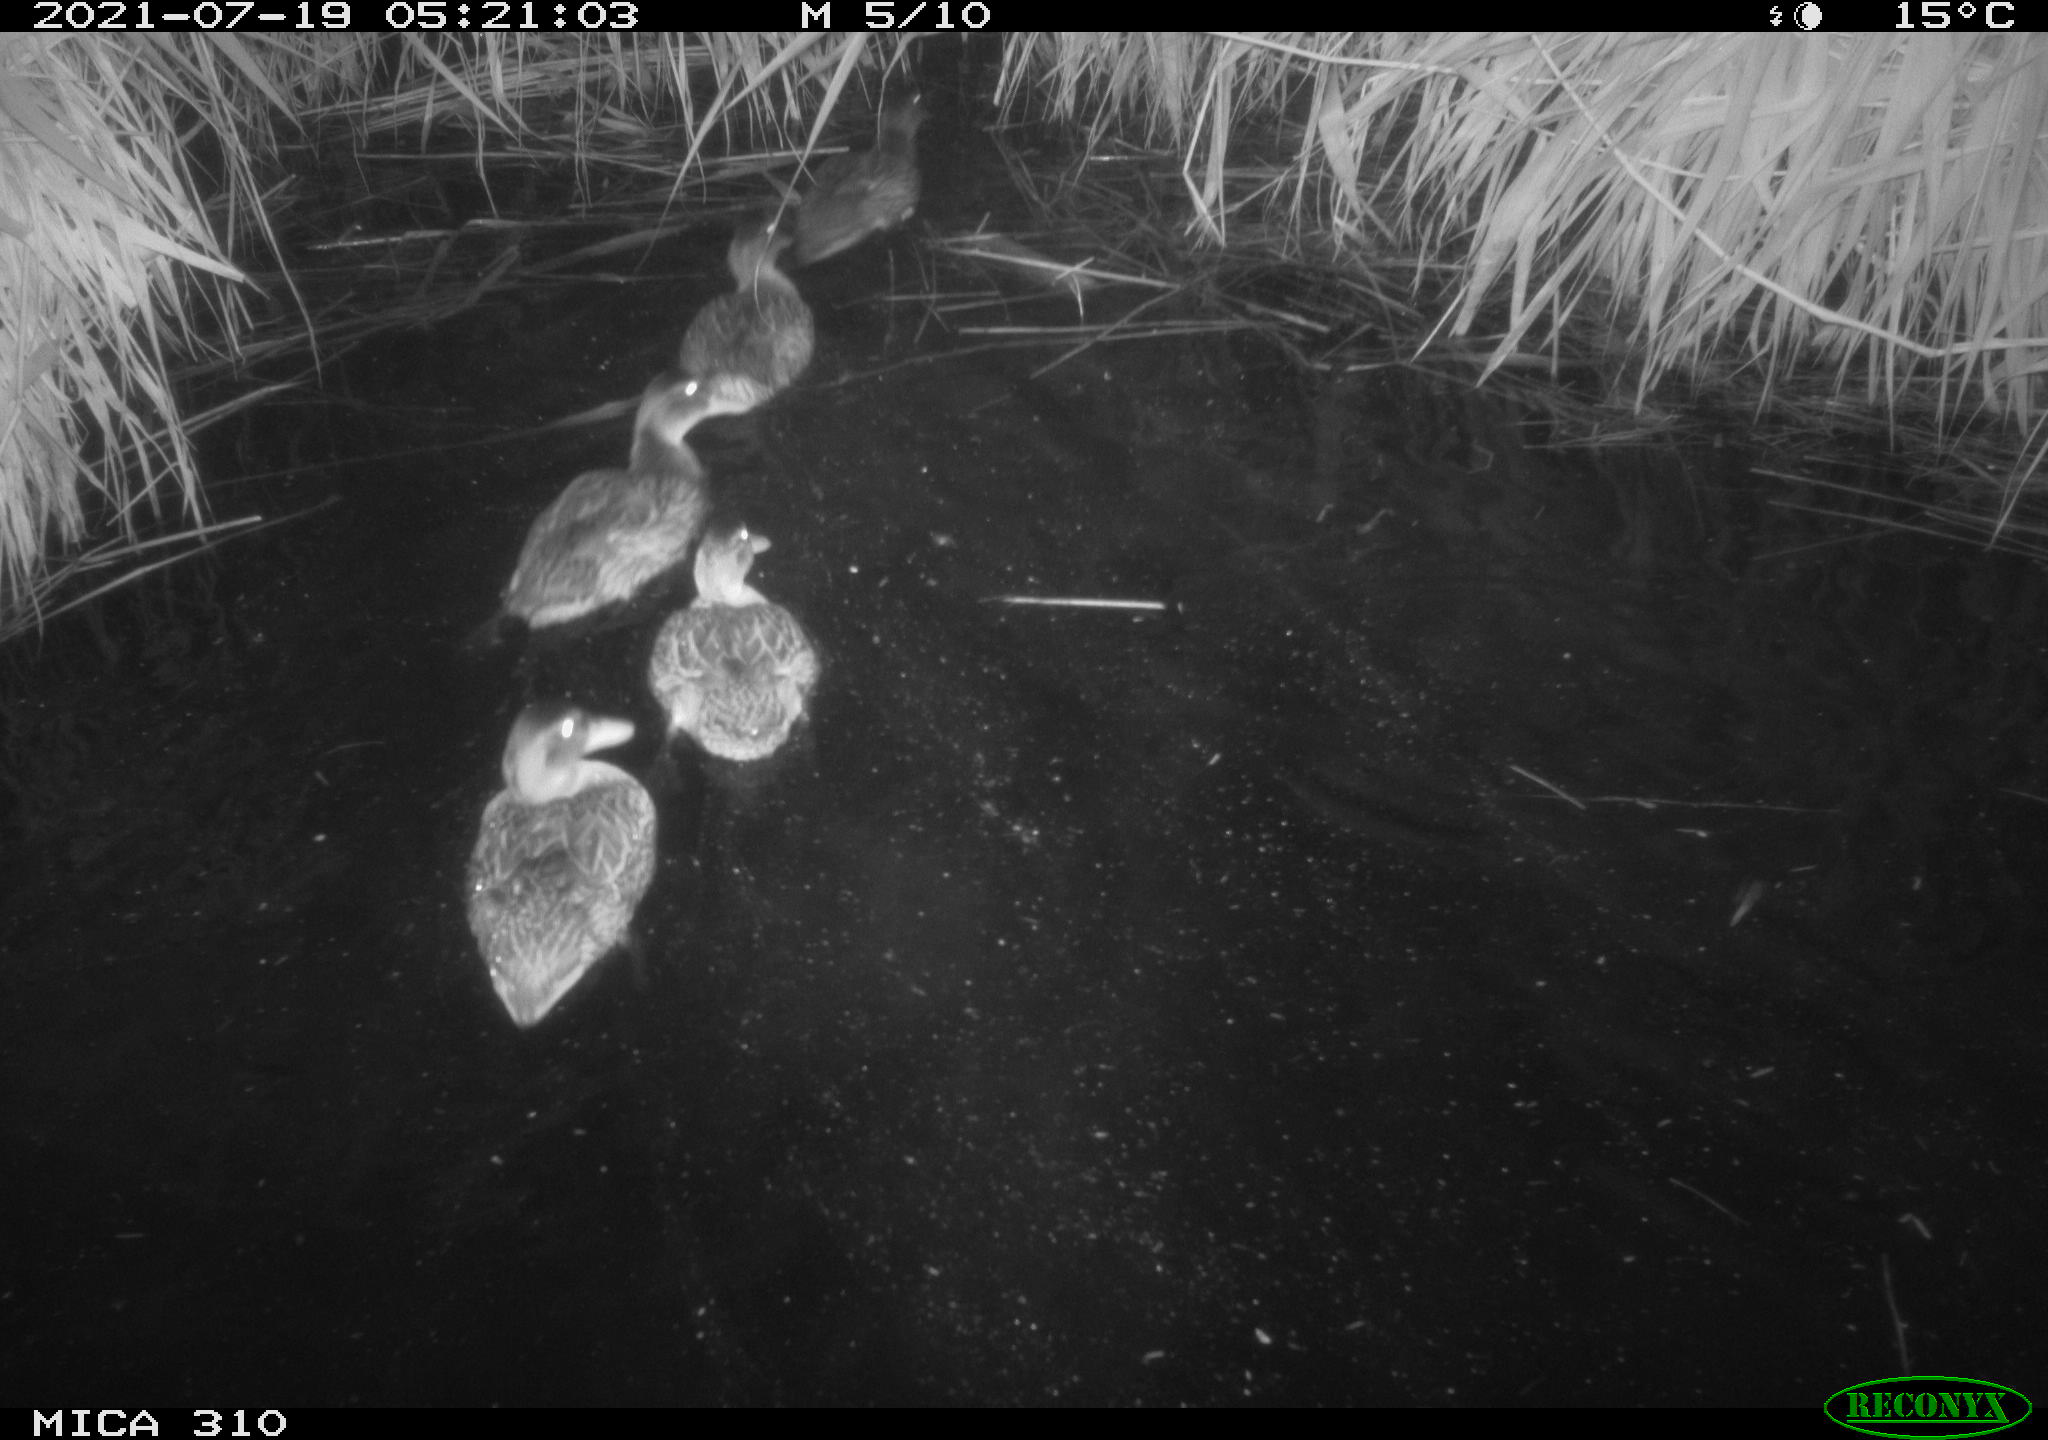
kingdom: Animalia
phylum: Chordata
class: Aves
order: Anseriformes
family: Anatidae
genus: Anas
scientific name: Anas platyrhynchos
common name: Mallard
